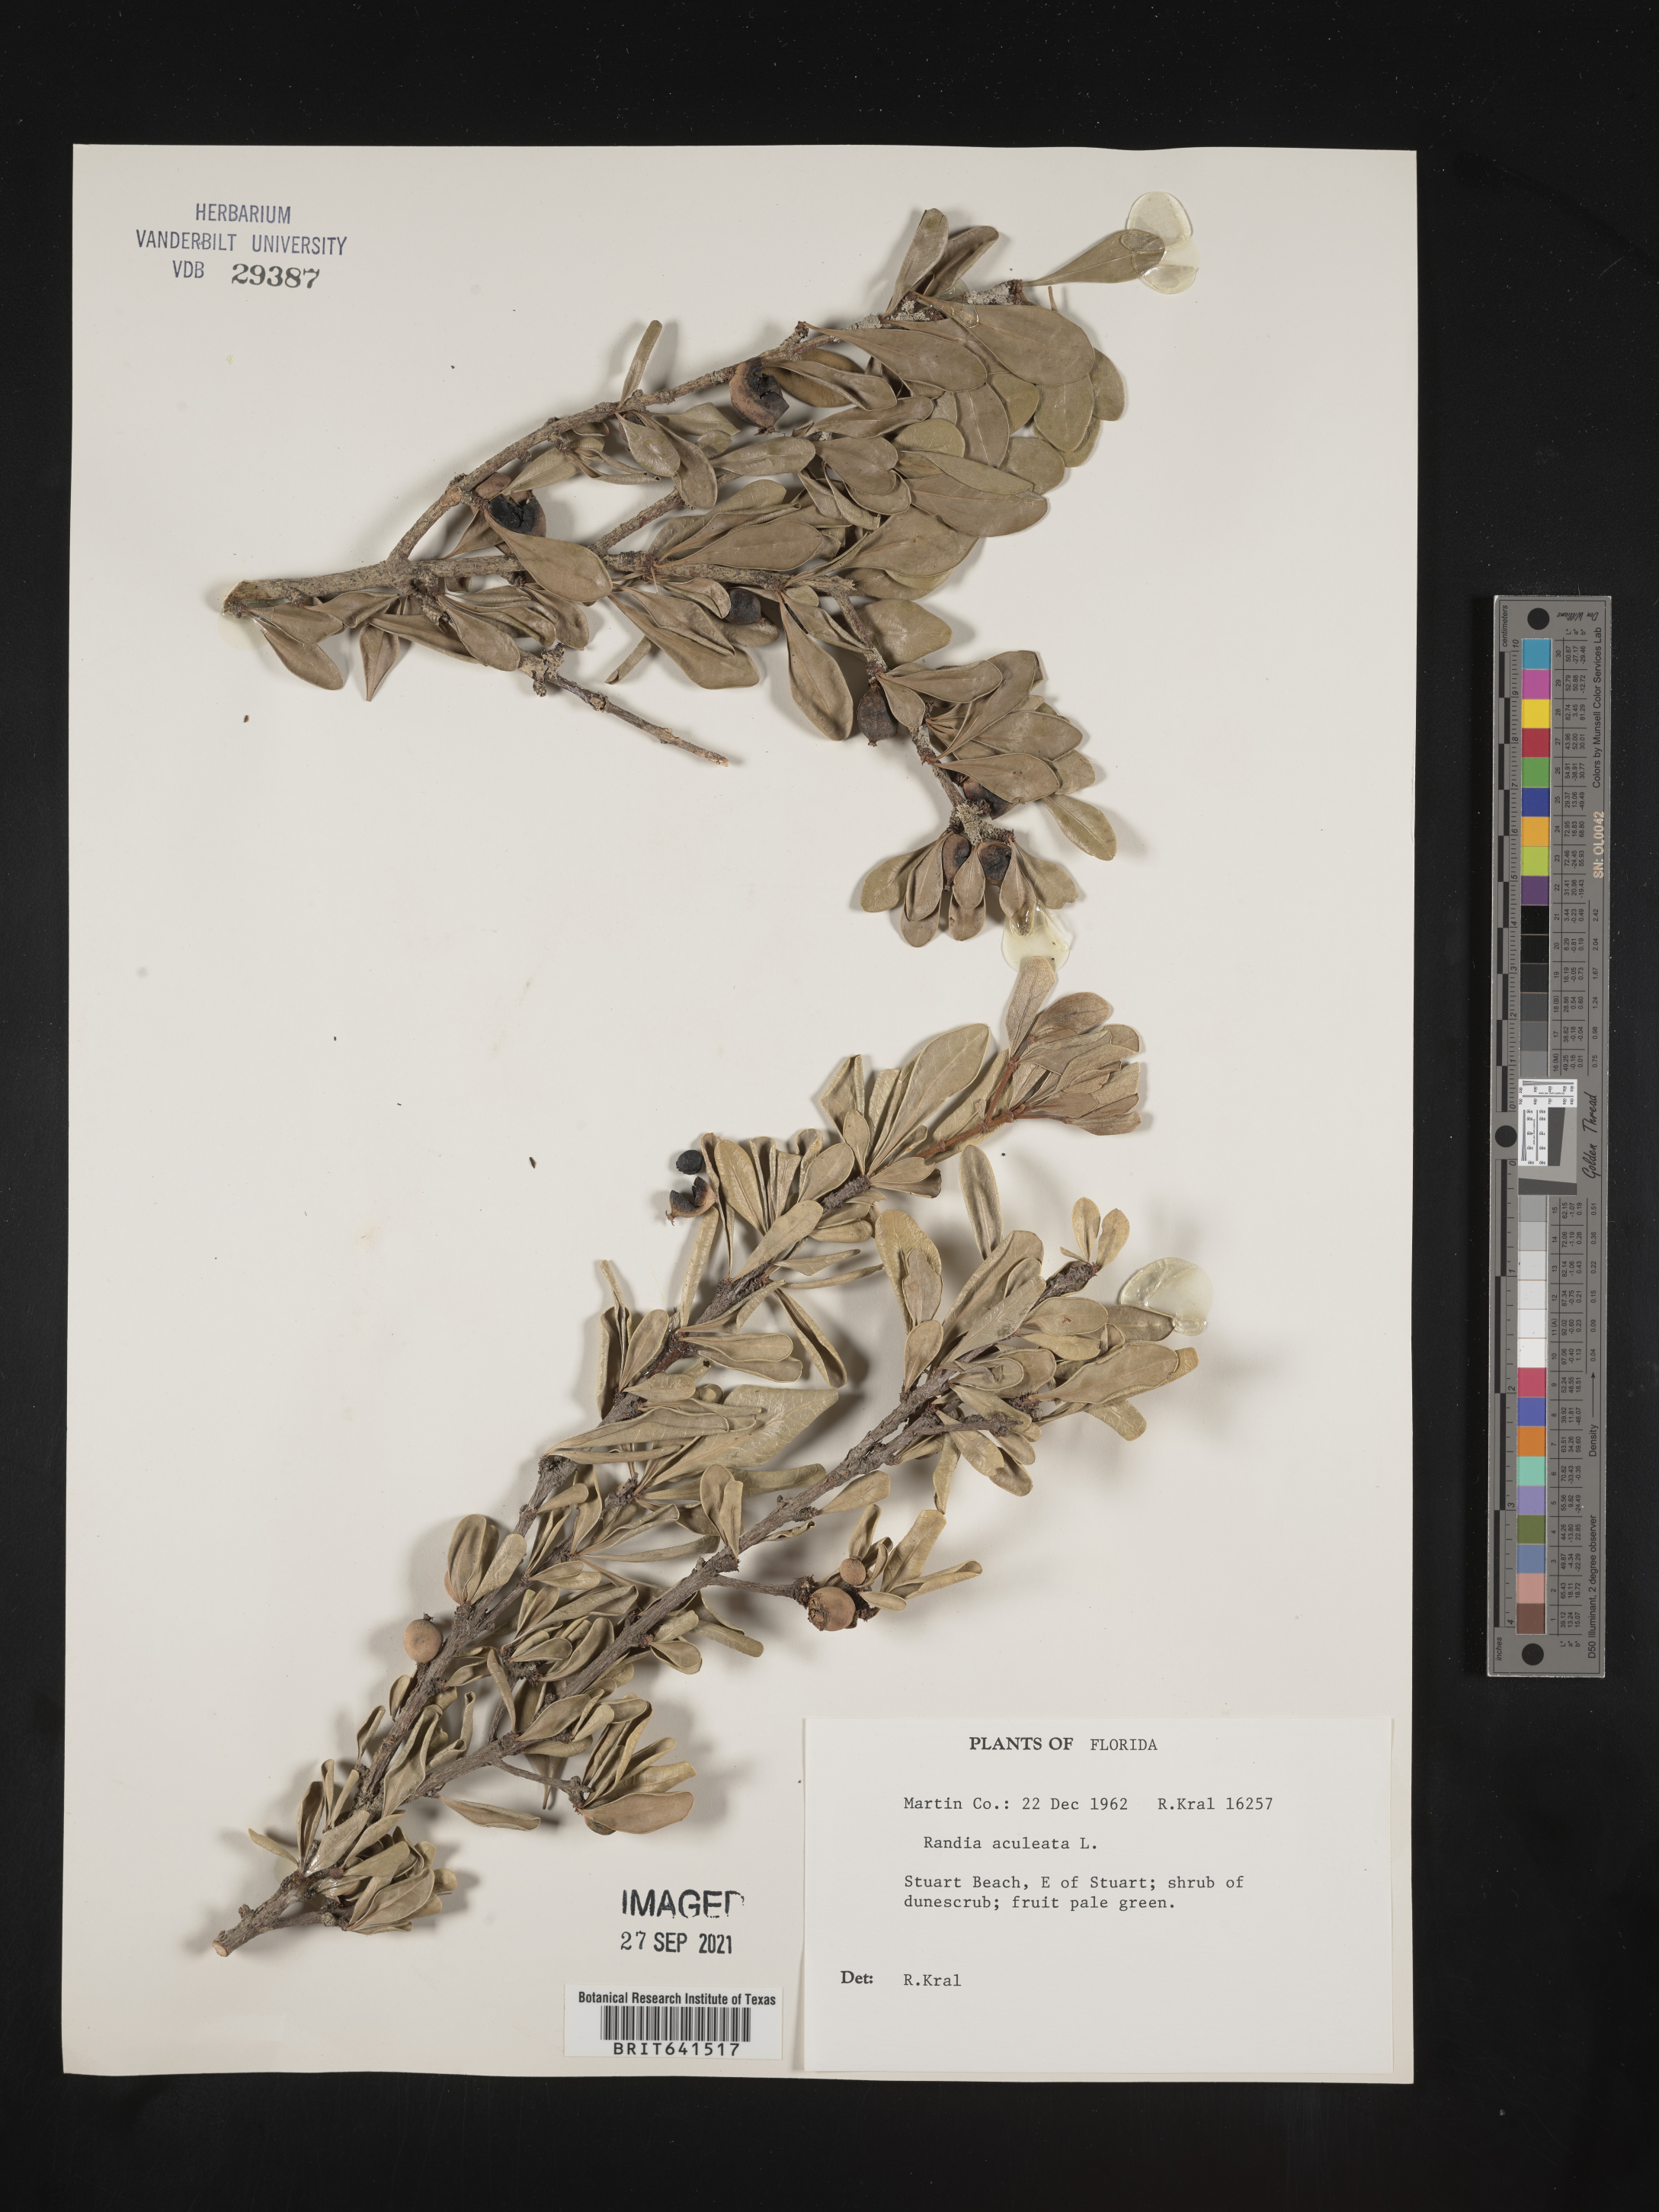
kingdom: Plantae
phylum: Tracheophyta
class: Magnoliopsida
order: Gentianales
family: Rubiaceae
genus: Randia
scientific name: Randia aculeata
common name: Inkberry
